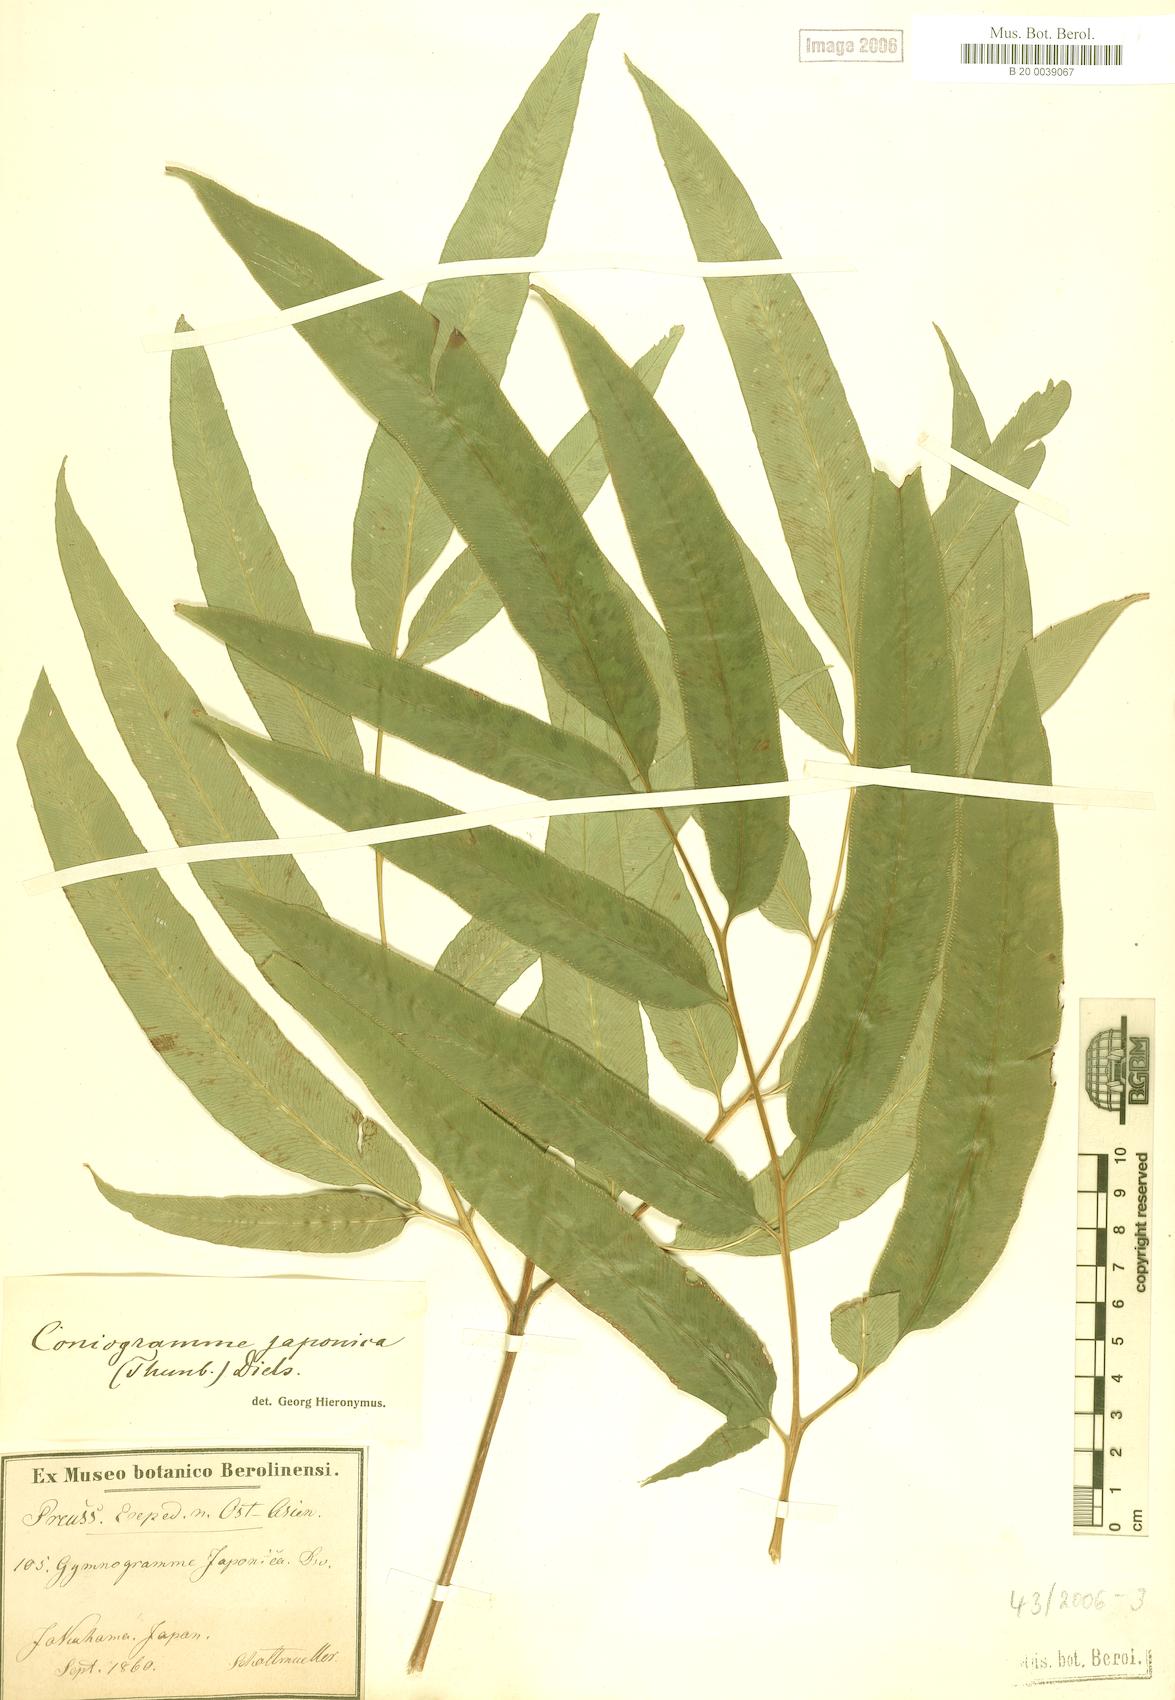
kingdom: Plantae
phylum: Tracheophyta
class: Polypodiopsida
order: Polypodiales
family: Pteridaceae
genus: Coniogramme
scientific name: Coniogramme japonica
